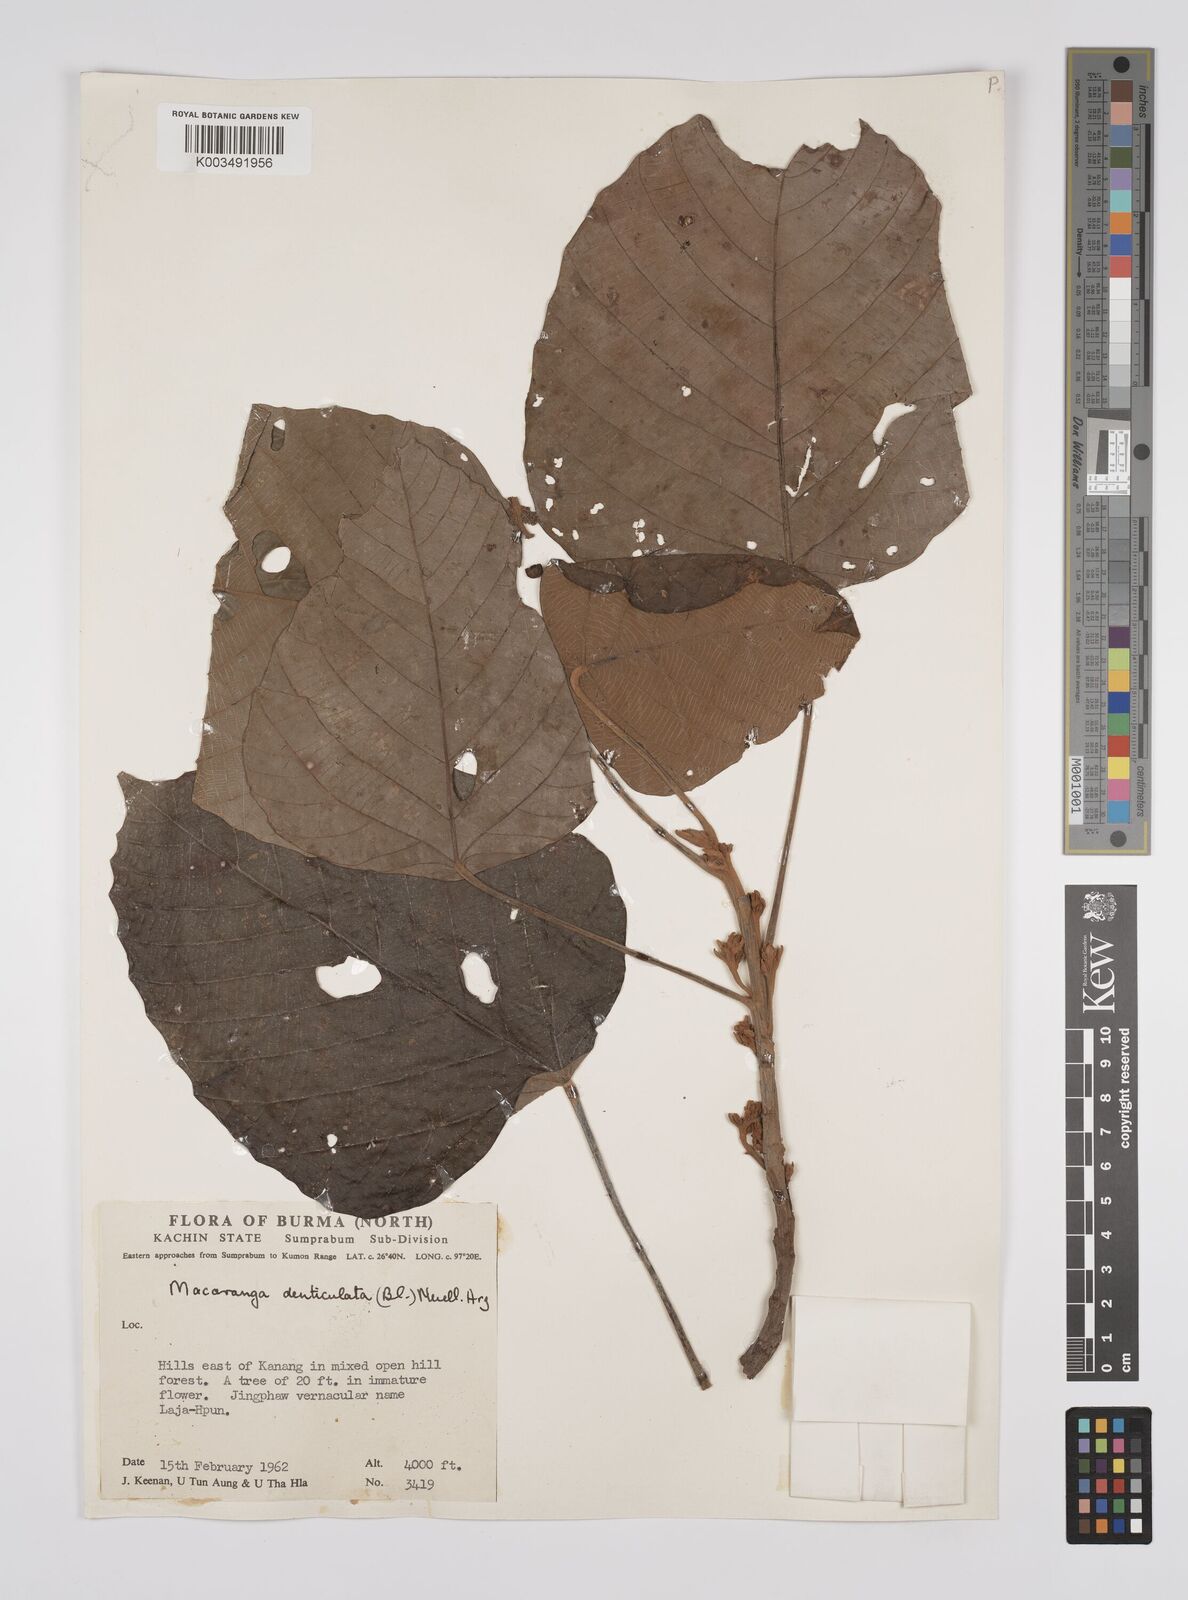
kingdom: Plantae
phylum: Tracheophyta
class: Magnoliopsida
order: Malpighiales
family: Euphorbiaceae
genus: Macaranga
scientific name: Macaranga denticulata
